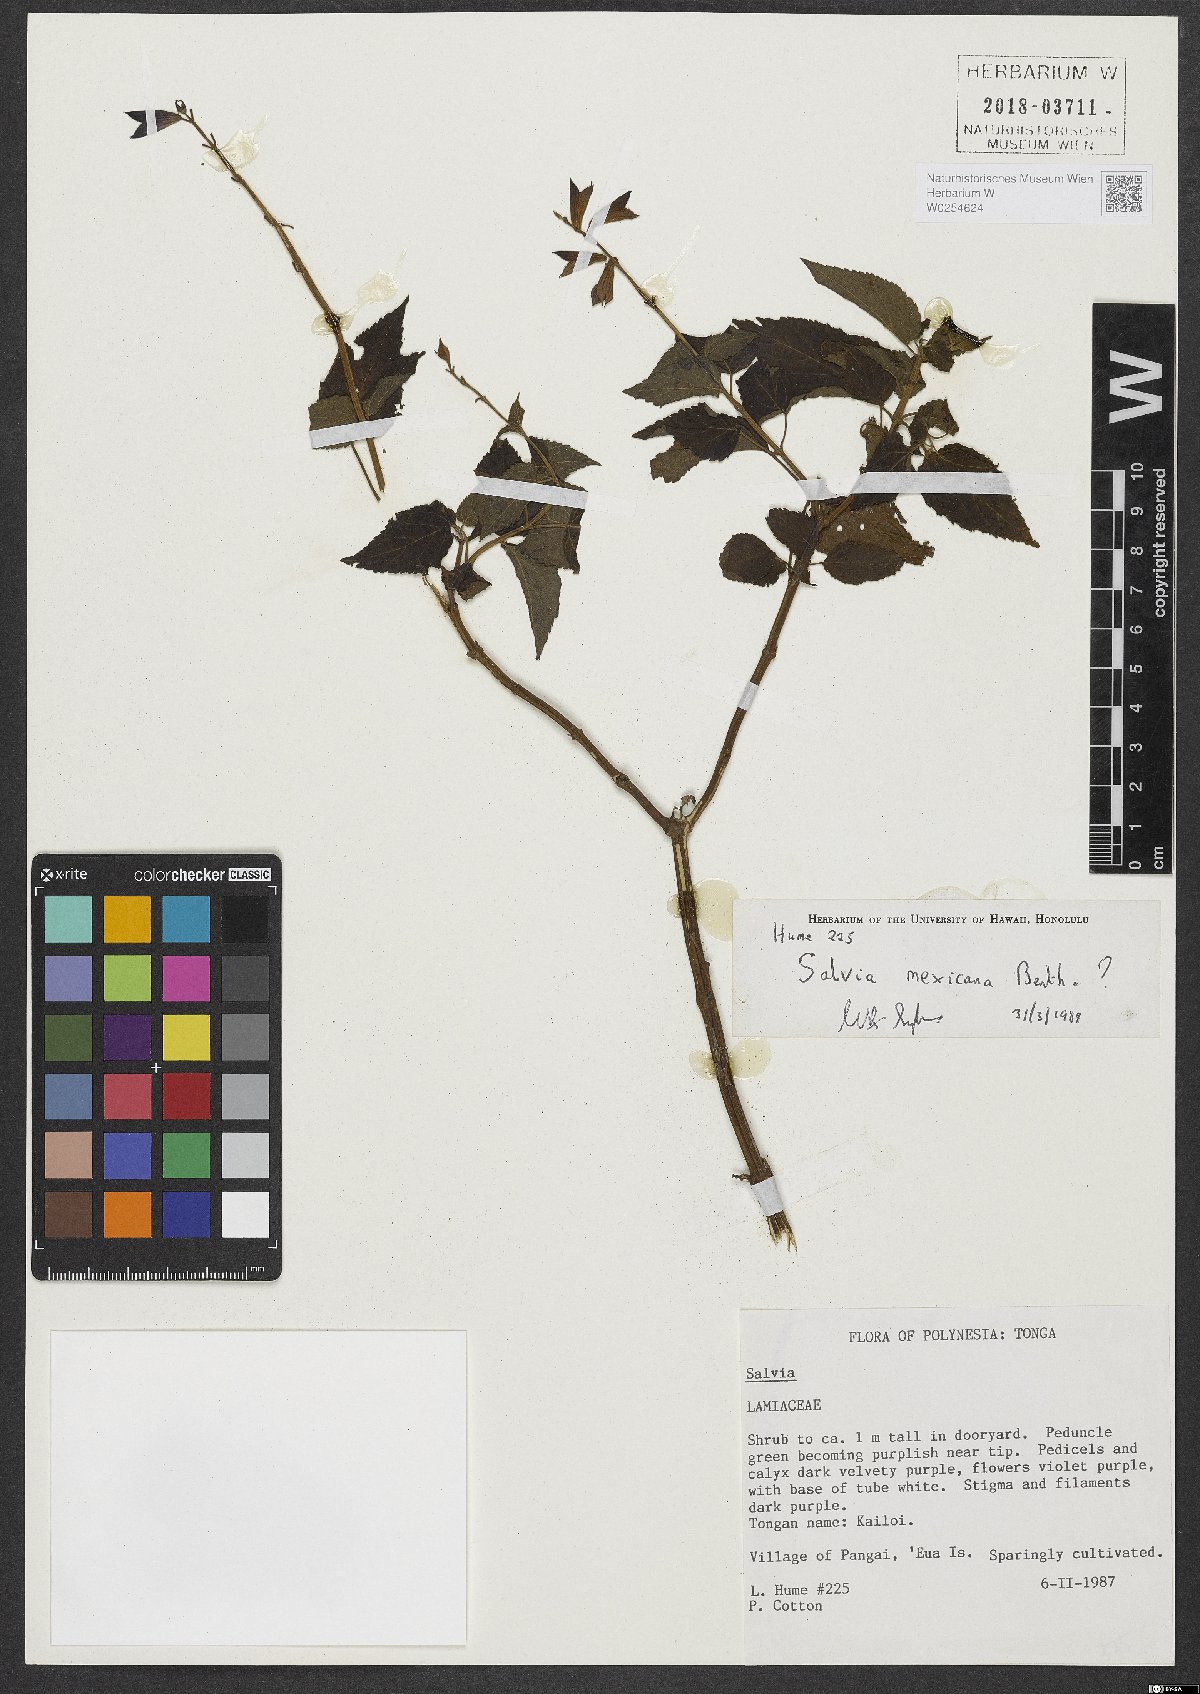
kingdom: Plantae
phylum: Tracheophyta
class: Magnoliopsida
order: Lamiales
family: Lamiaceae
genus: Salvia
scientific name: Salvia mexicana
